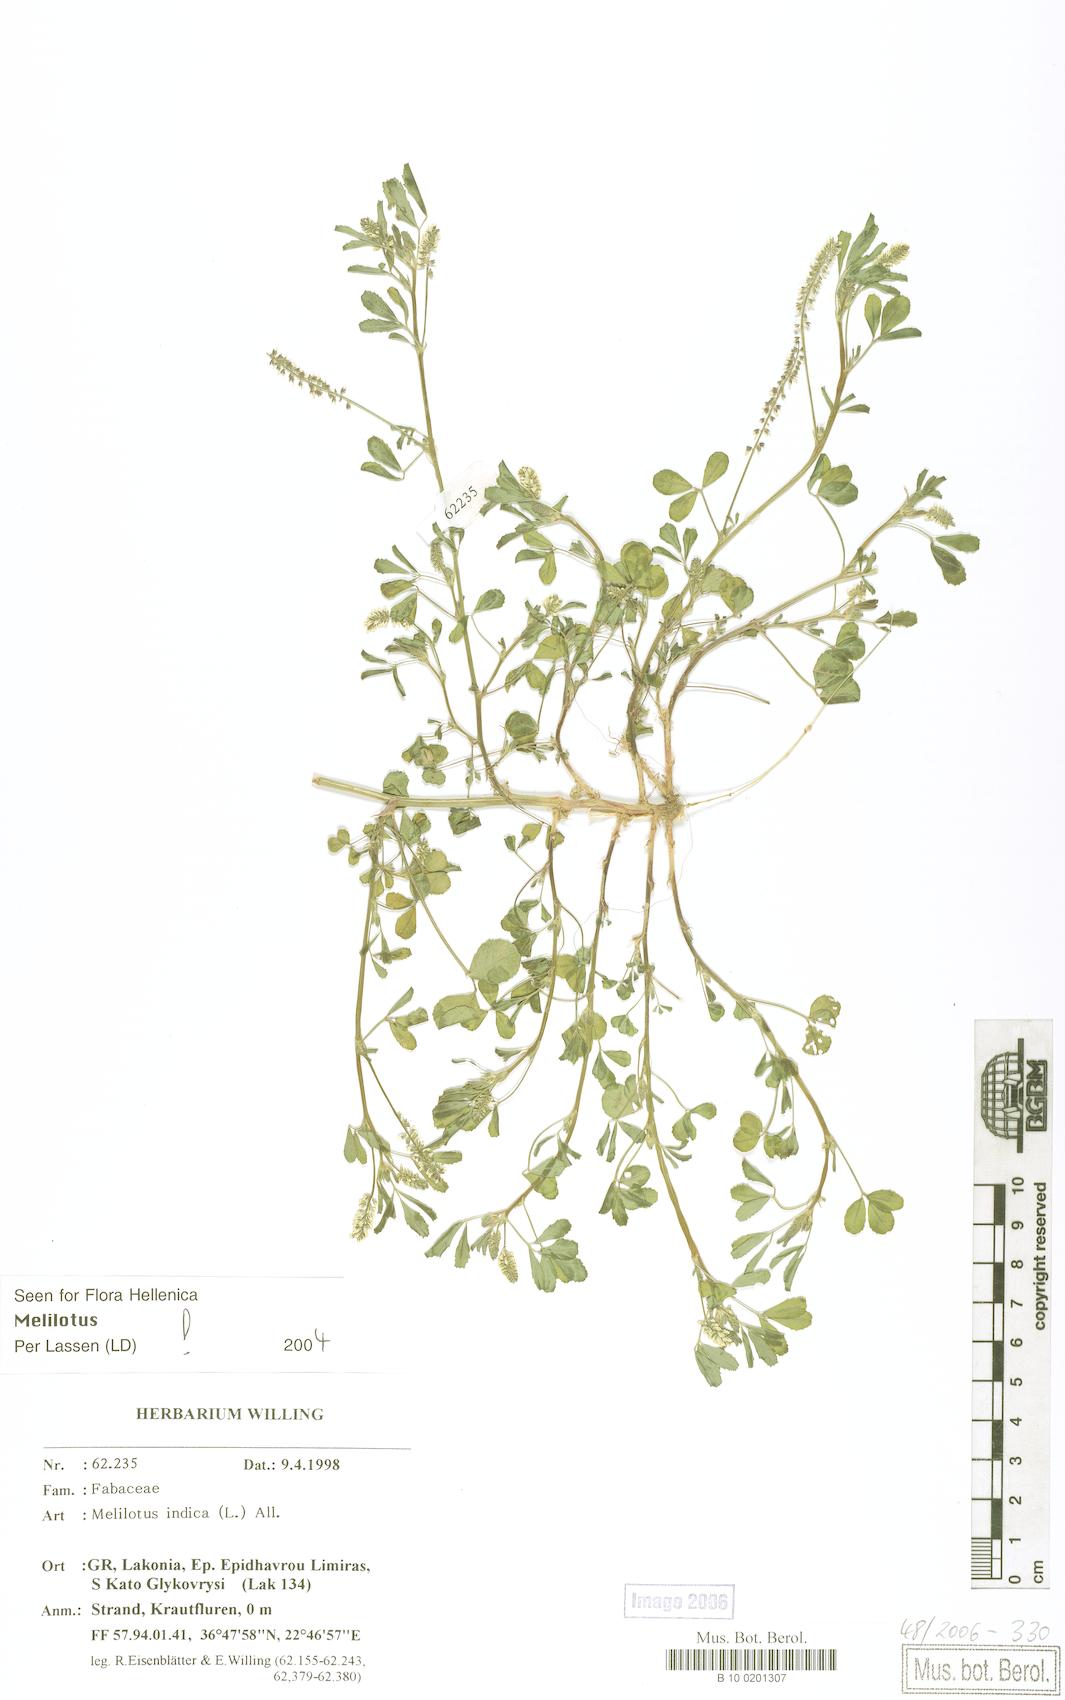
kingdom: Plantae
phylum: Tracheophyta
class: Magnoliopsida
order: Fabales
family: Fabaceae
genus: Melilotus
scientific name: Melilotus indicus
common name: Small melilot
